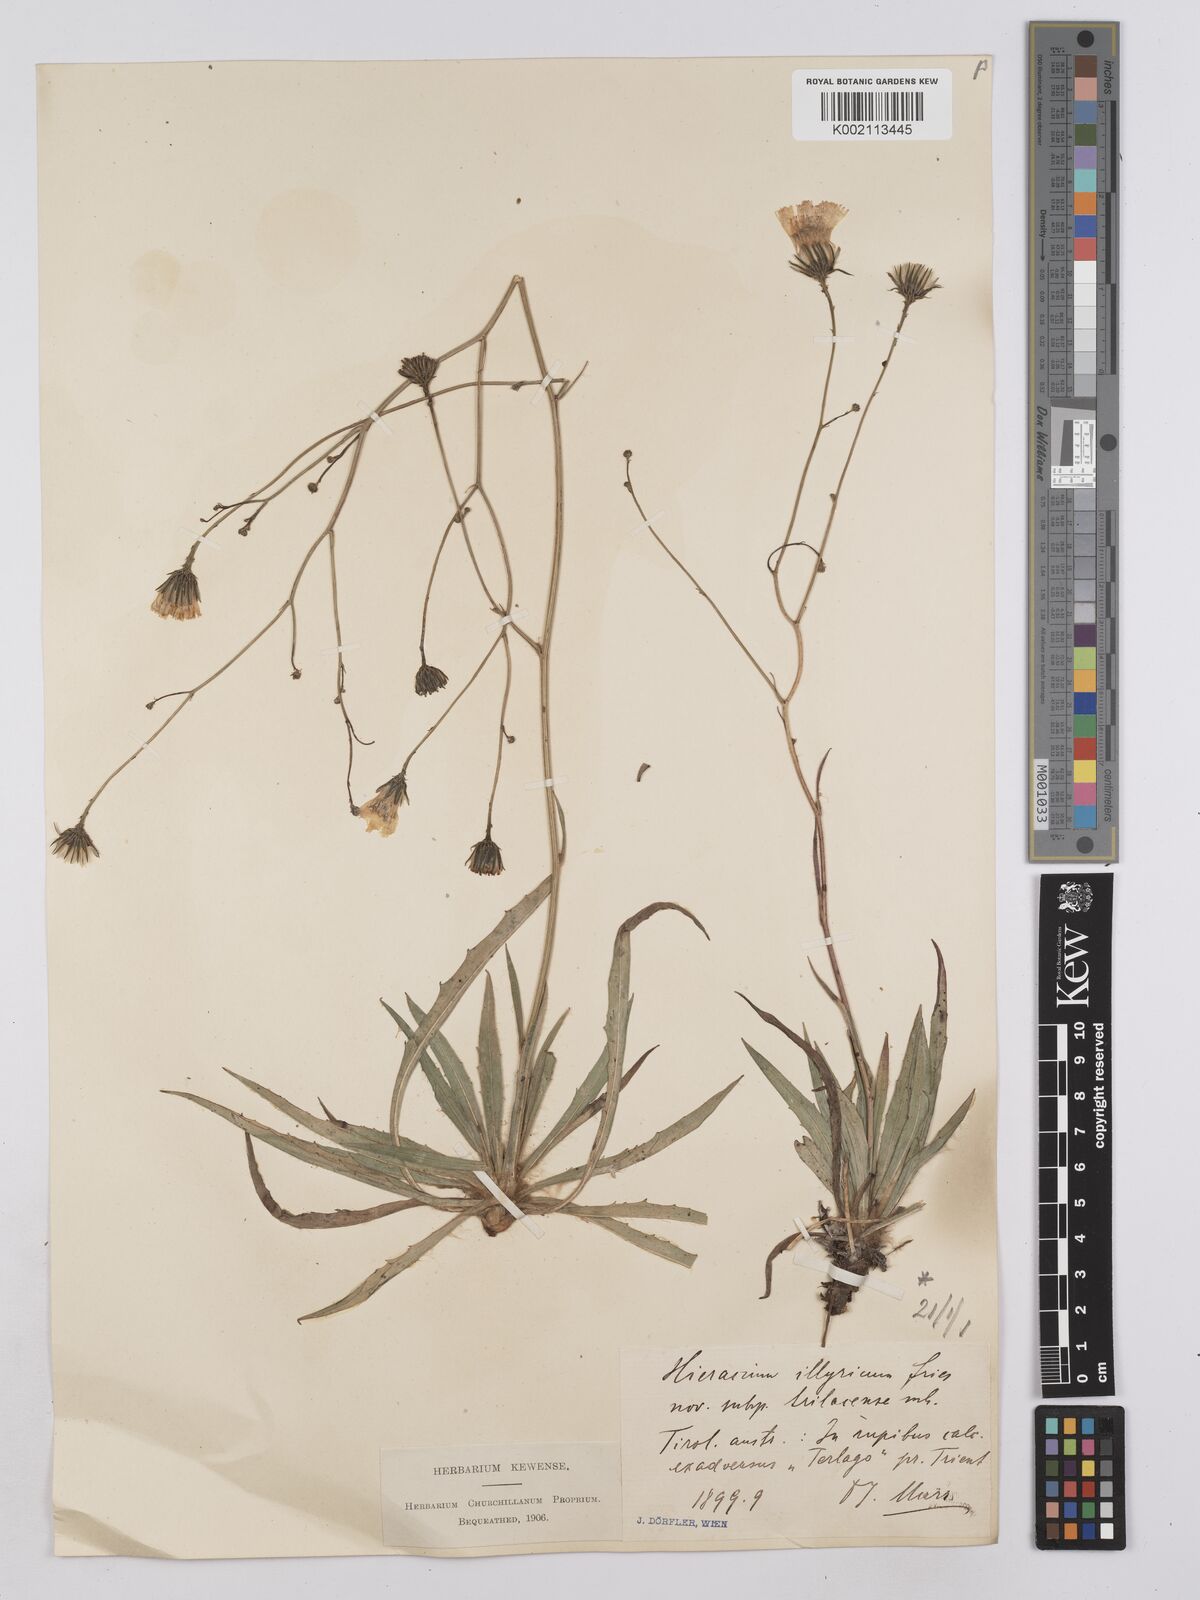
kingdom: Plantae
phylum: Tracheophyta
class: Magnoliopsida
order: Asterales
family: Asteraceae
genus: Hieracium
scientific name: Hieracium
